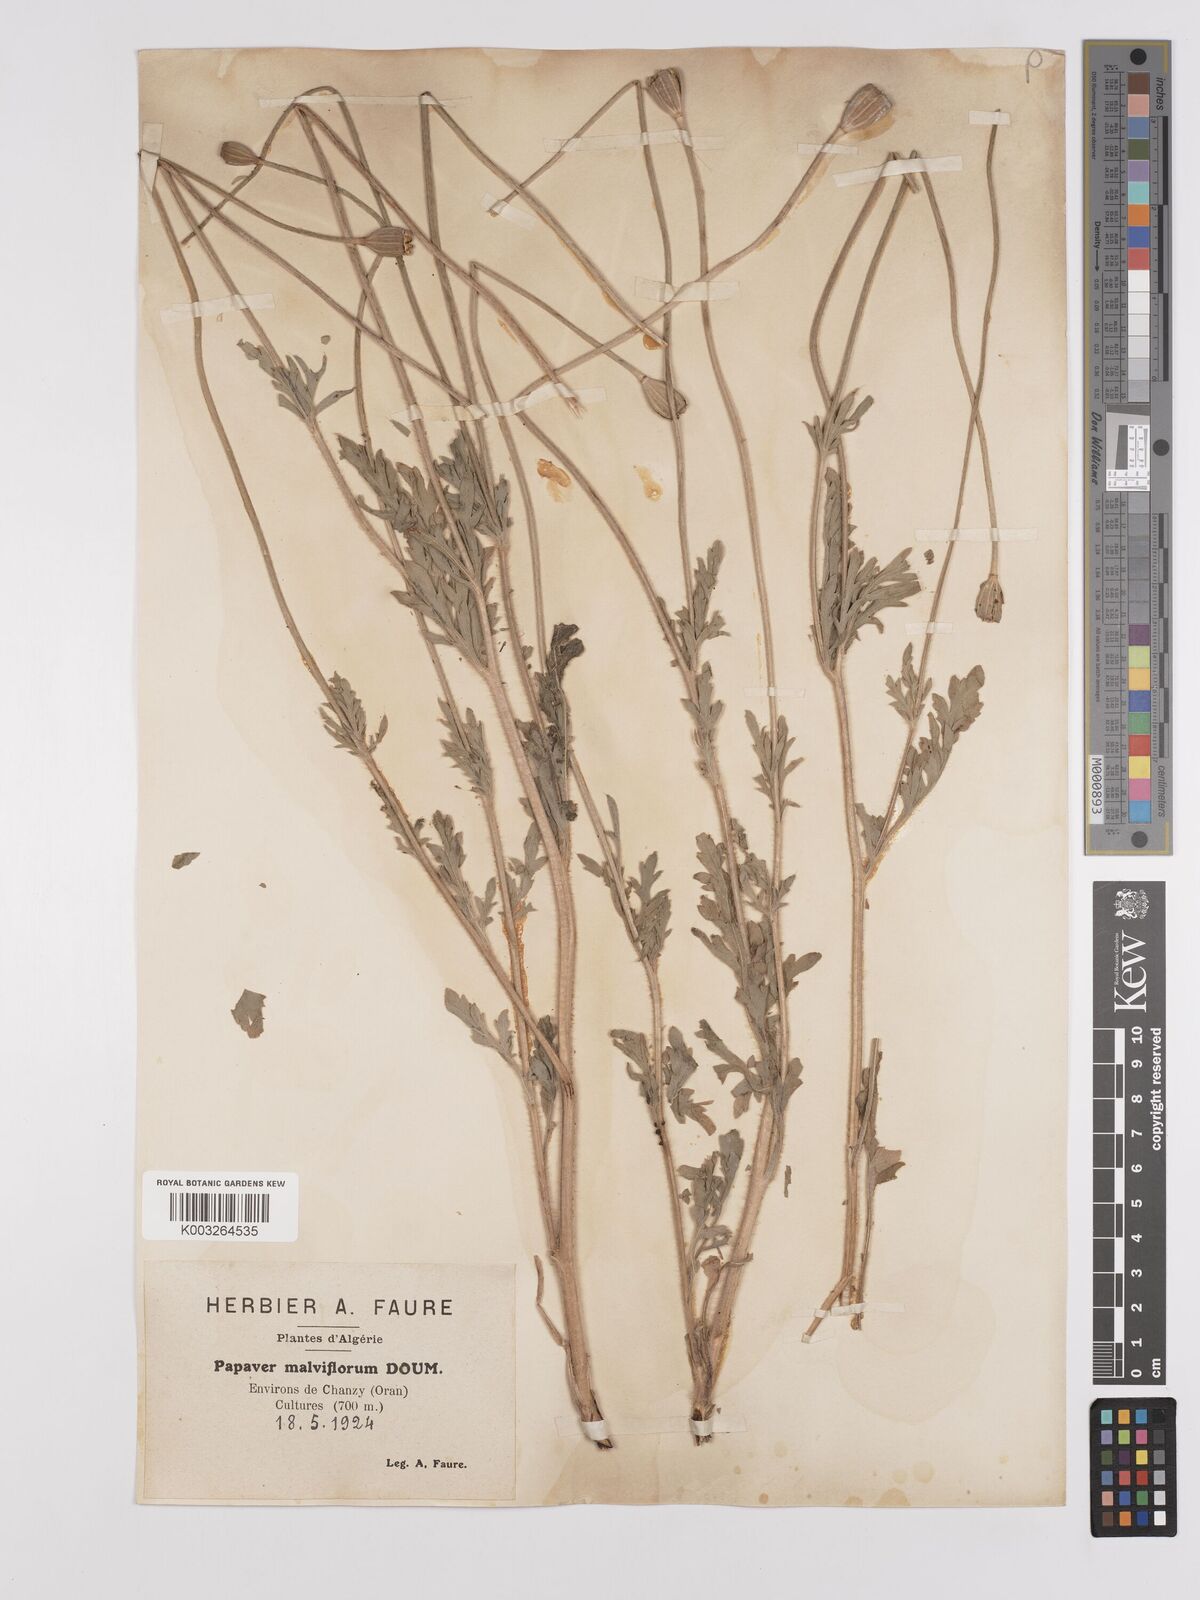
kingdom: Plantae
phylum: Tracheophyta
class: Magnoliopsida
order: Ranunculales
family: Papaveraceae
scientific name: Papaveraceae
